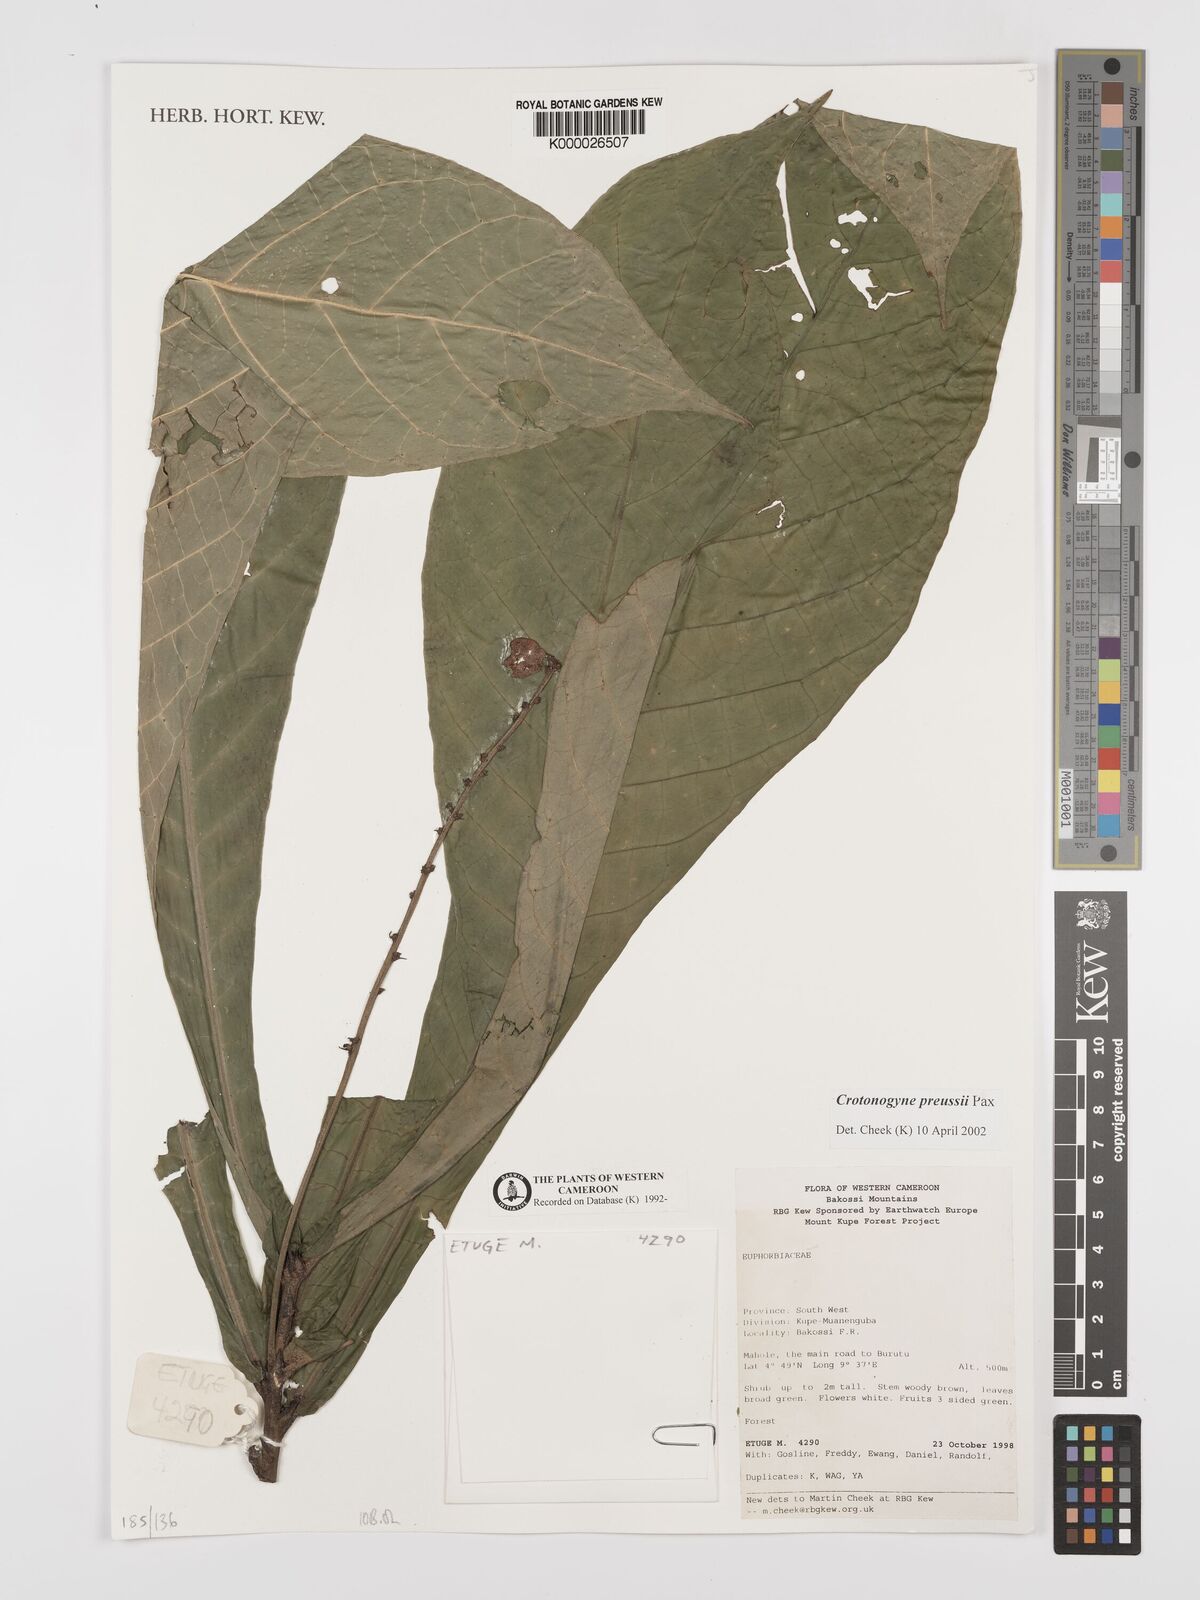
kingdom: Plantae
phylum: Tracheophyta
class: Magnoliopsida
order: Malpighiales
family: Euphorbiaceae
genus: Crotonogyne
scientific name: Crotonogyne preussii
